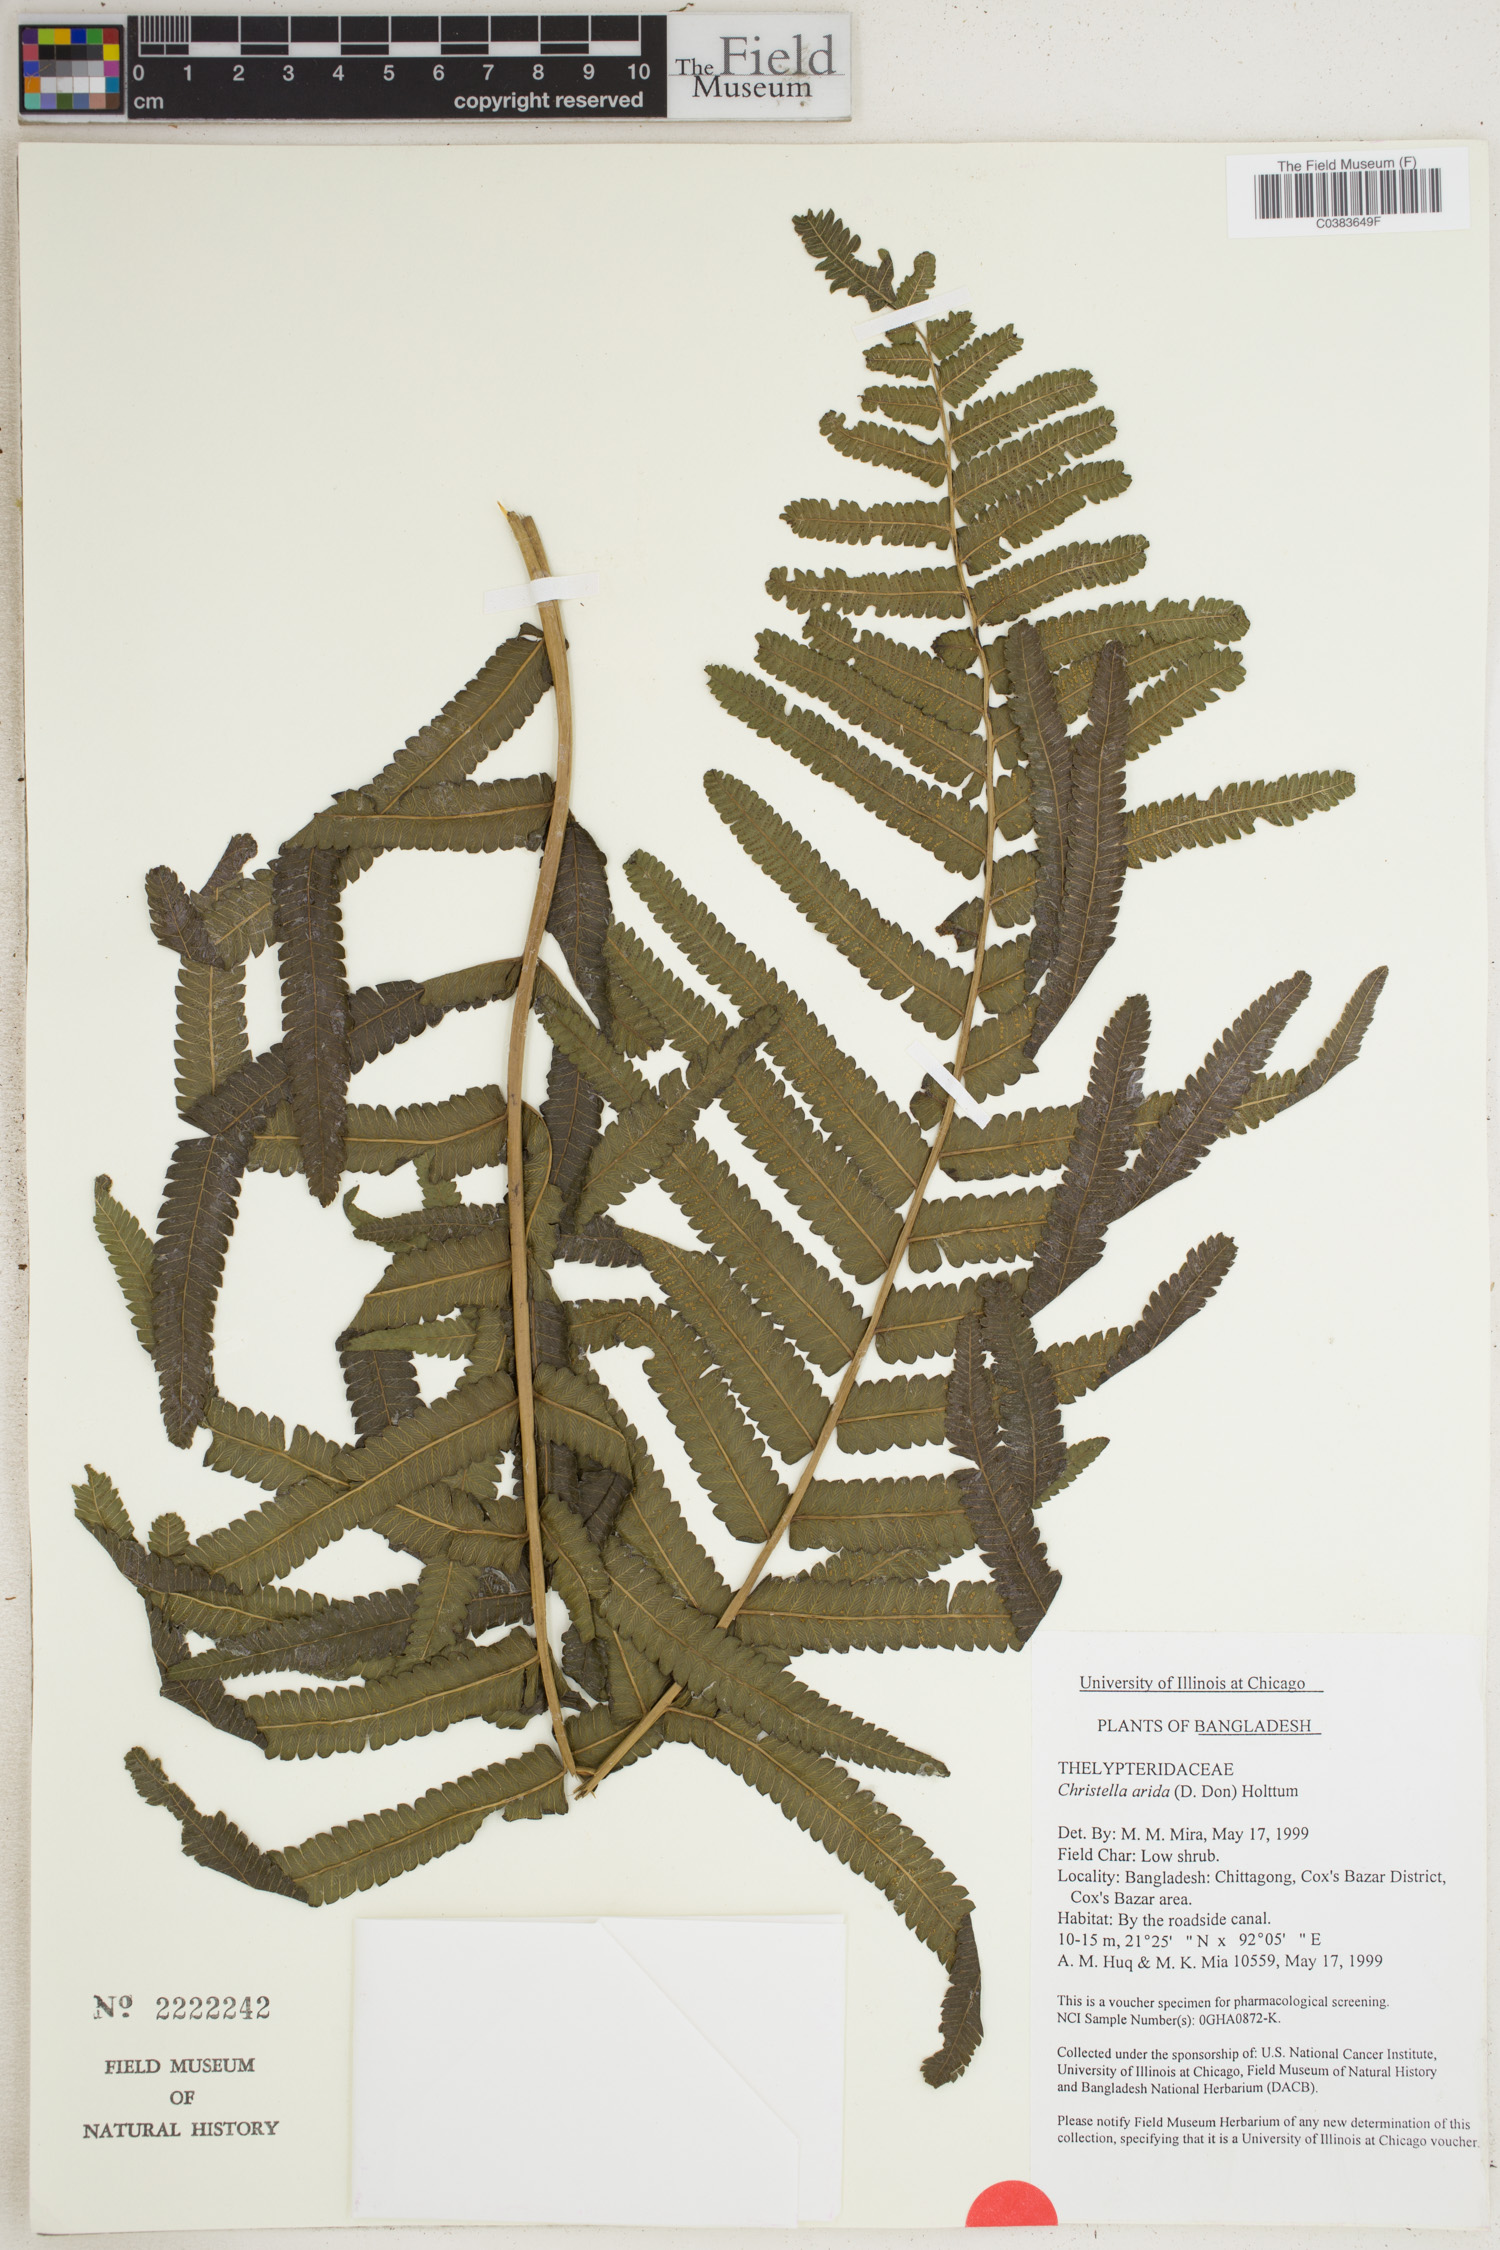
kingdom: Plantae
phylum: Tracheophyta
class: Polypodiopsida
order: Polypodiales
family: Thelypteridaceae
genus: Christella
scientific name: Christella arida
